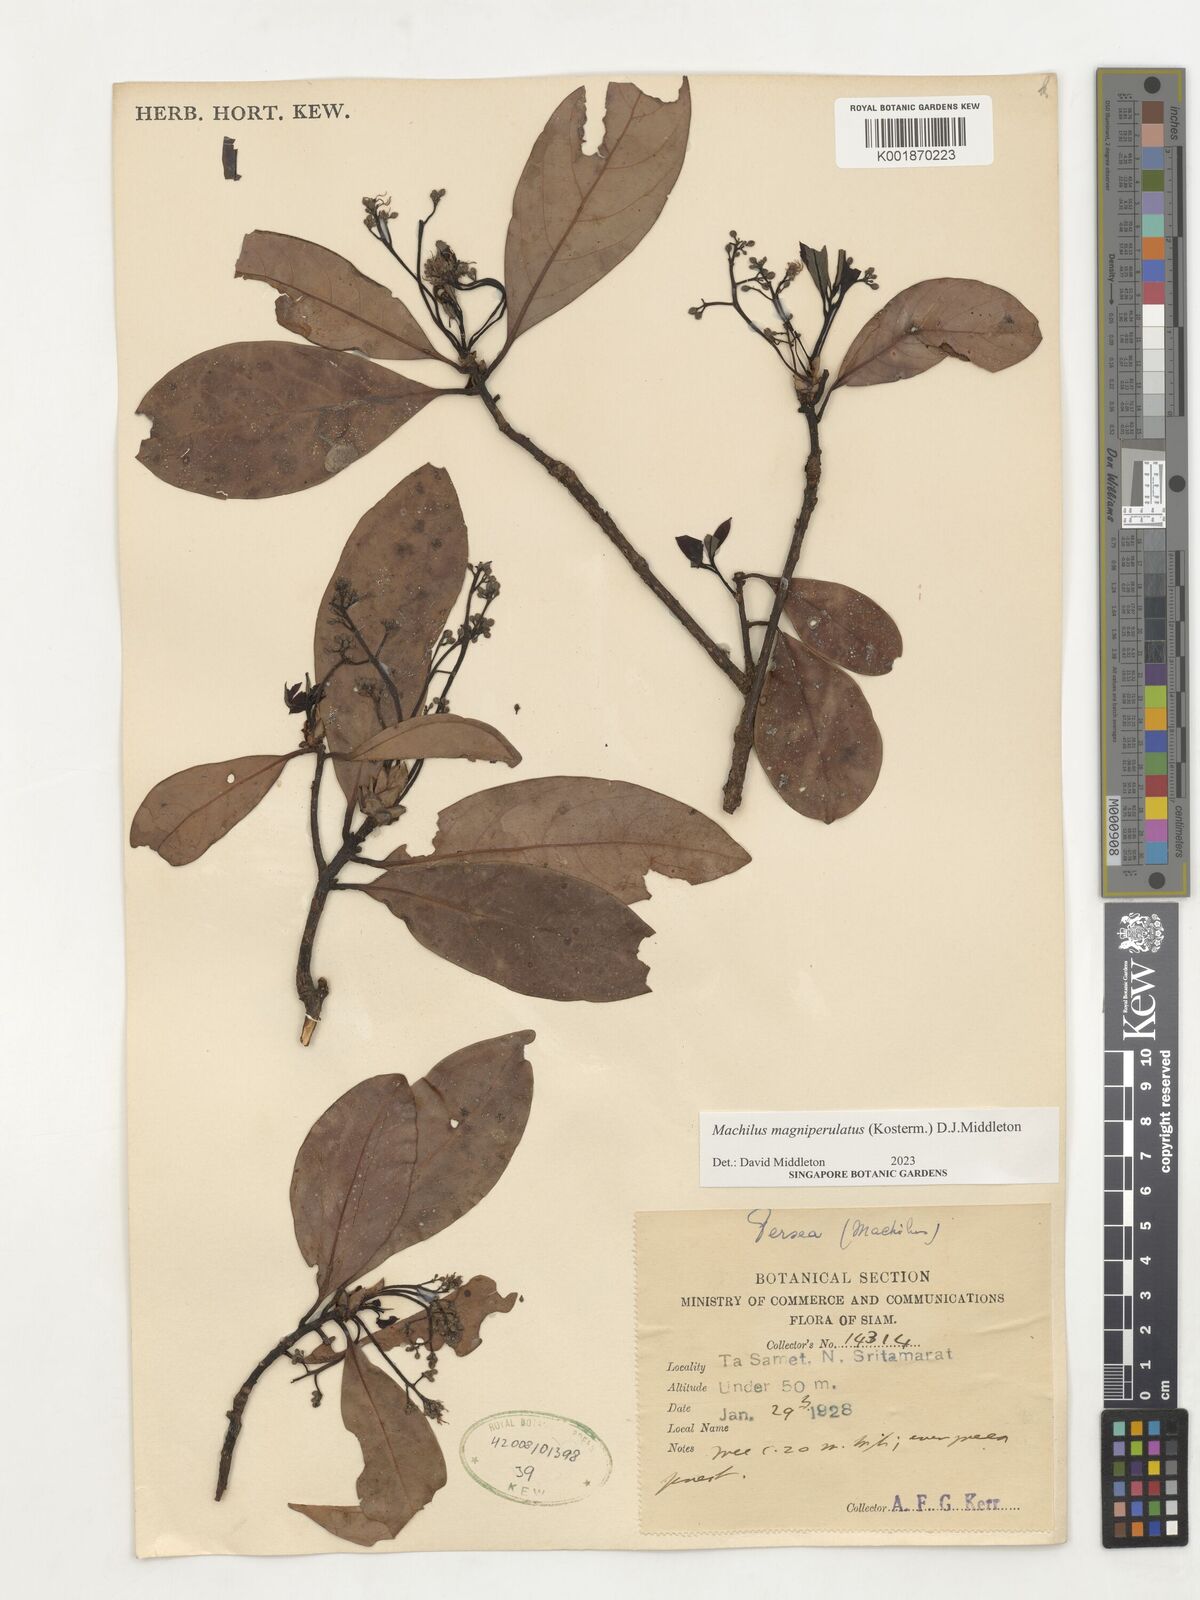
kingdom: Plantae
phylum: Tracheophyta
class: Magnoliopsida
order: Laurales
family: Lauraceae
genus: Machilus
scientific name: Machilus
